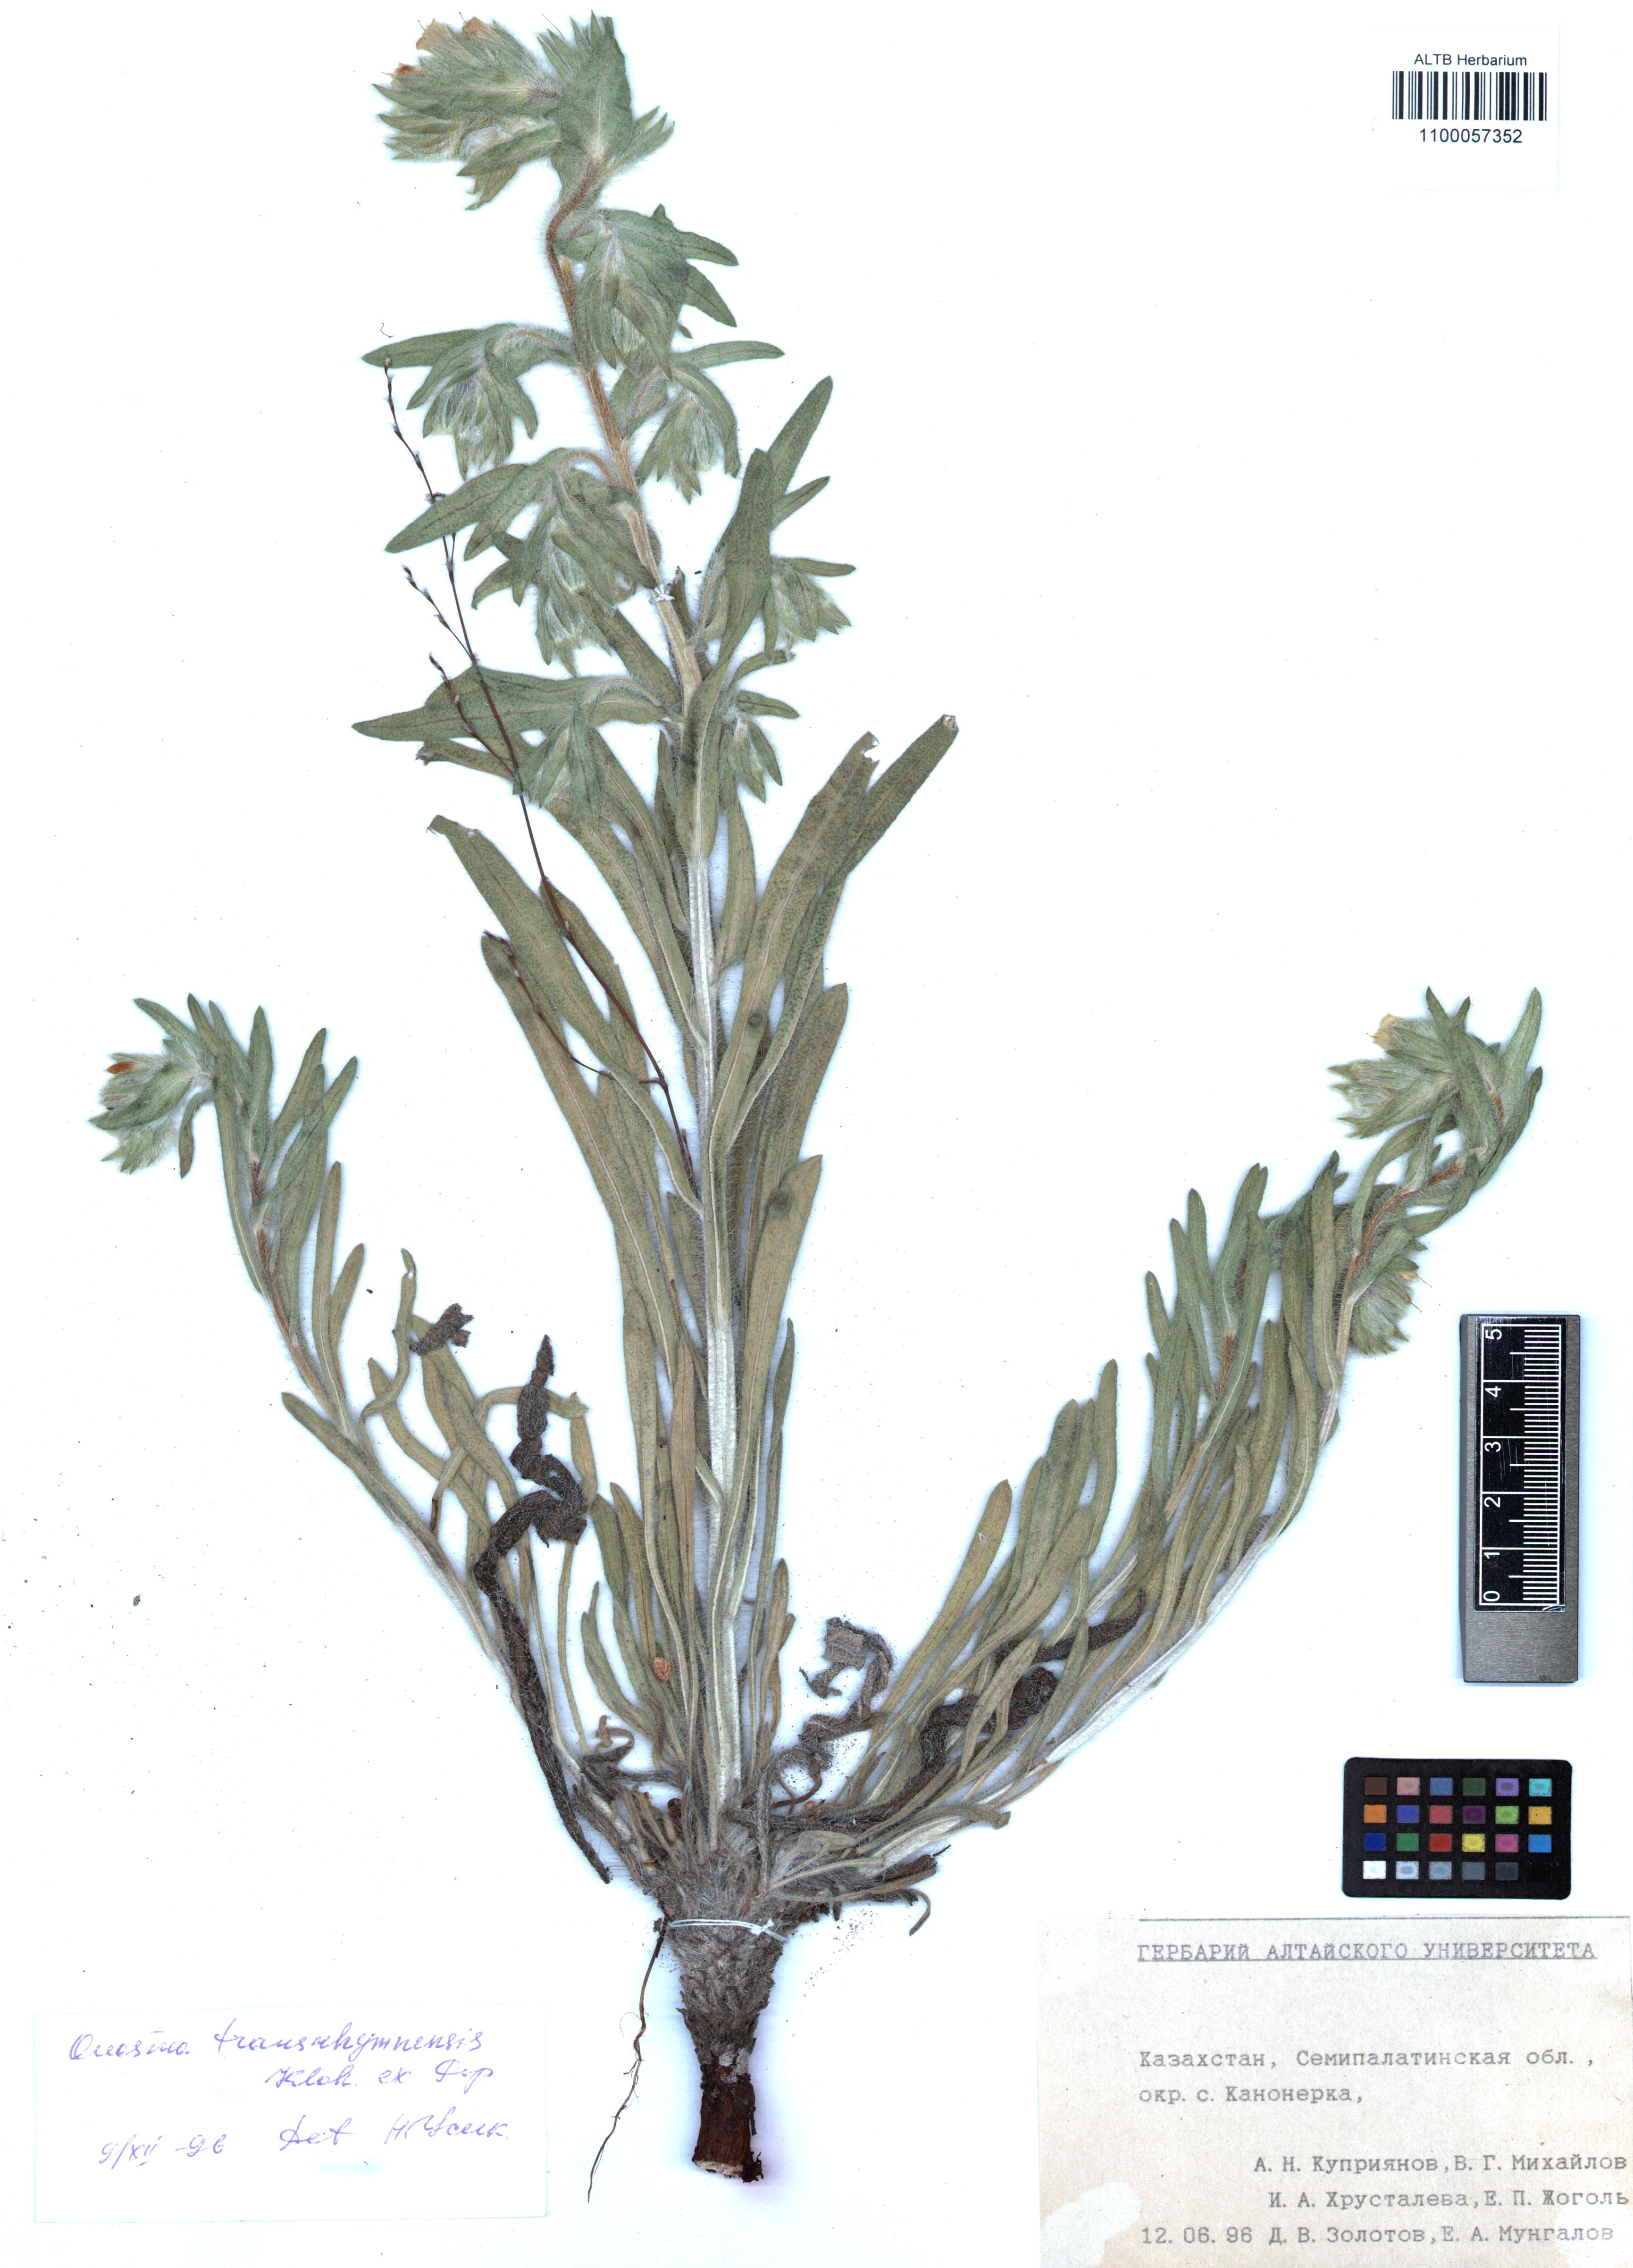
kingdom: Plantae
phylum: Tracheophyta
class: Magnoliopsida
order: Boraginales
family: Boraginaceae
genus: Onosma
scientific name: Onosma transrhymnensis
